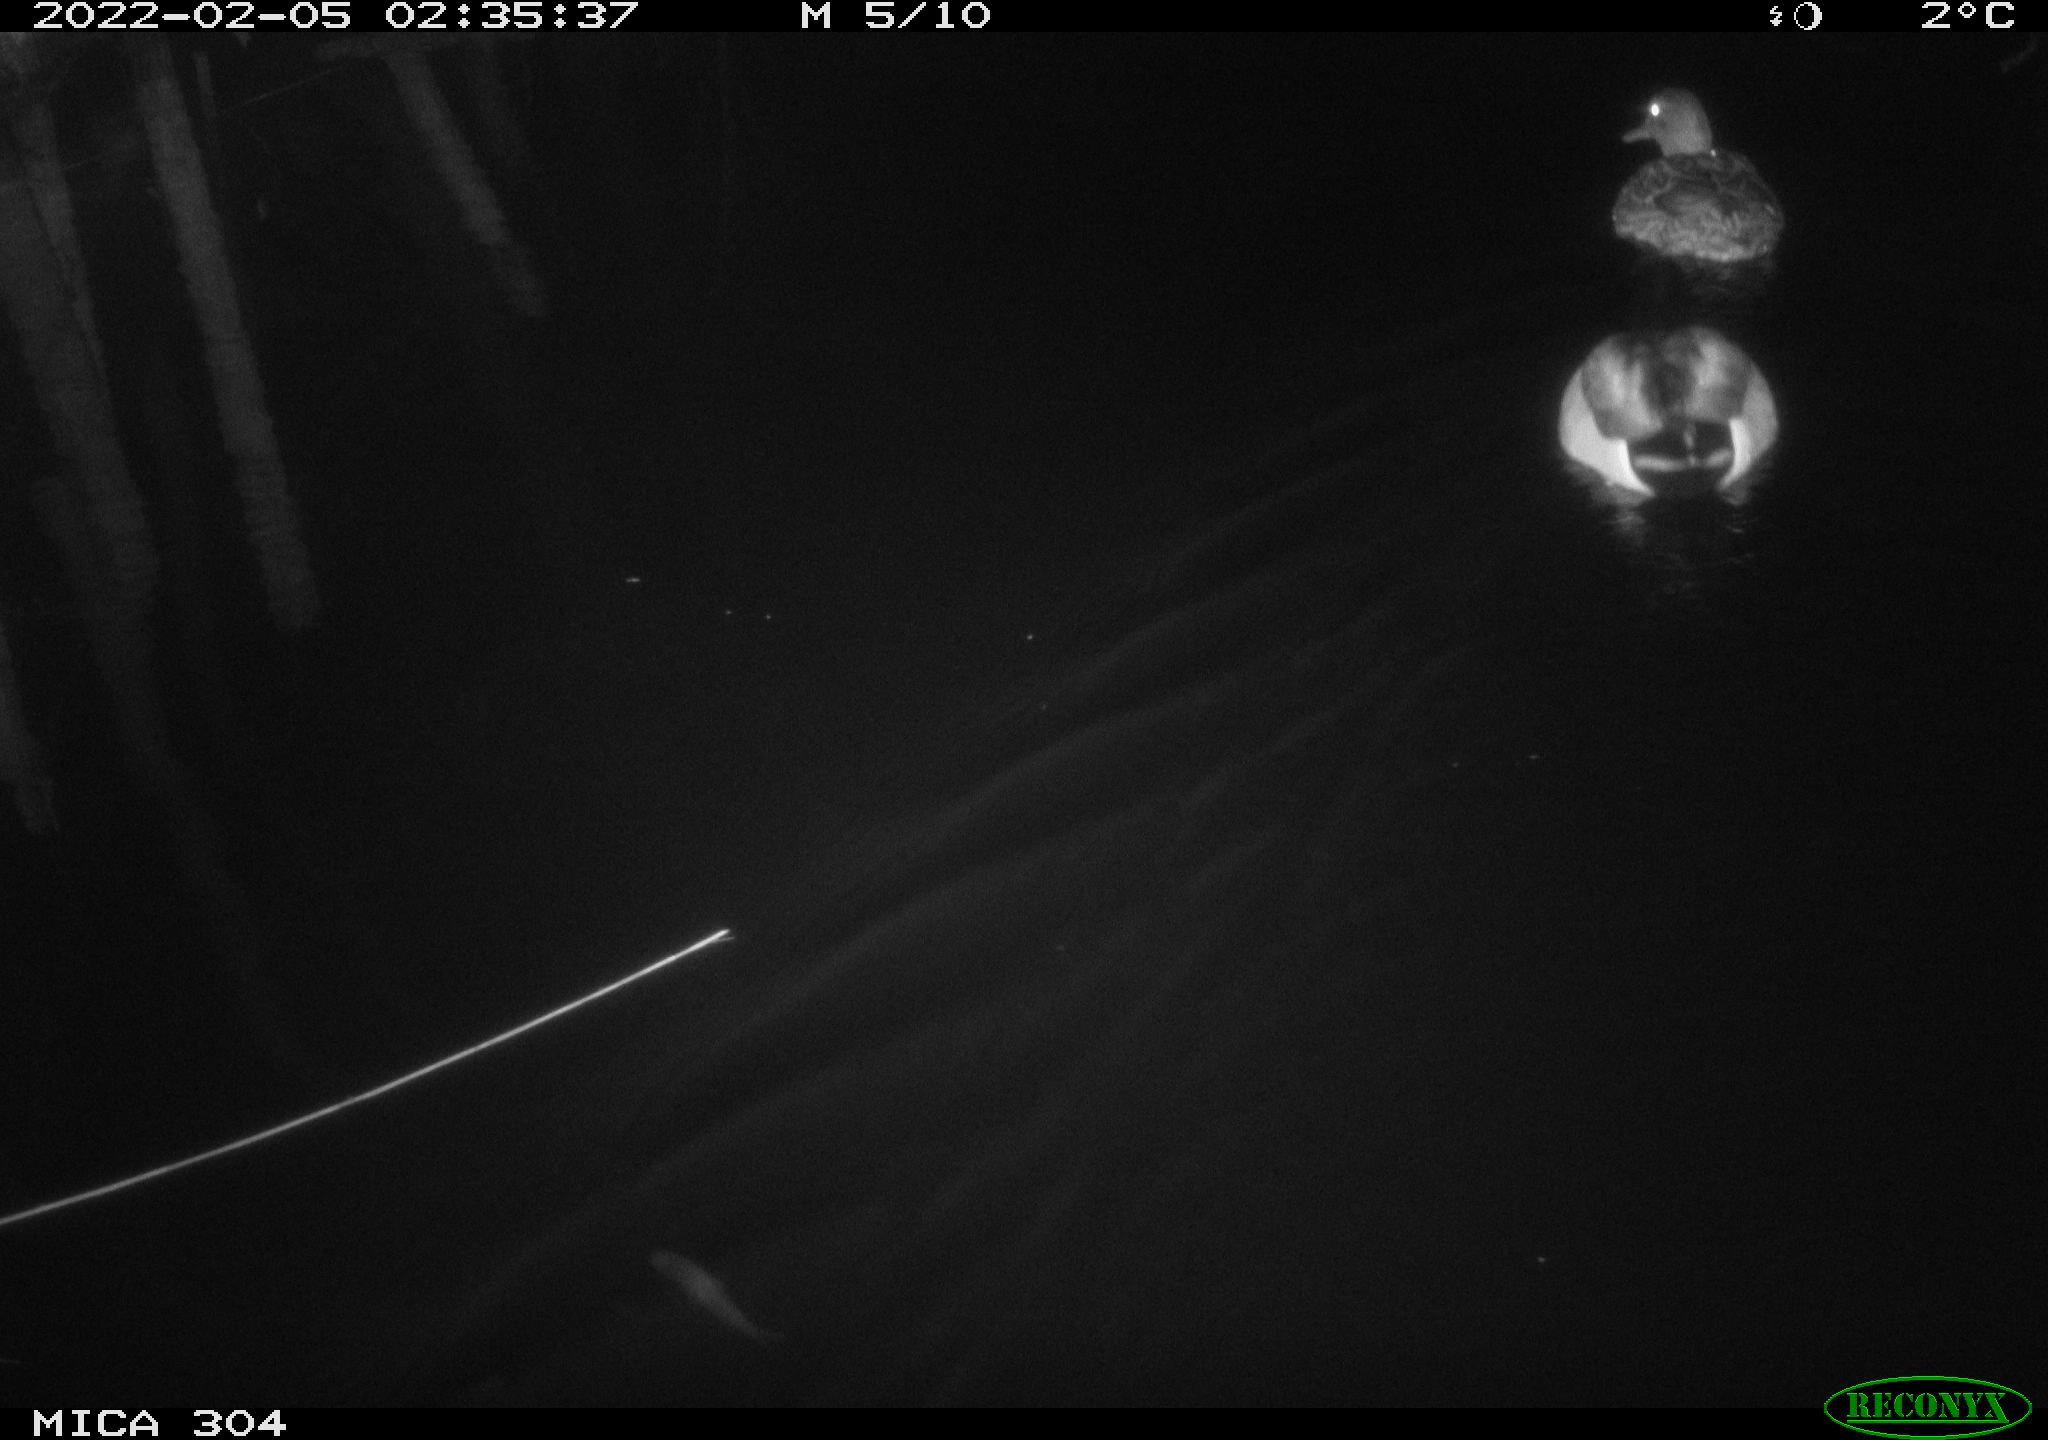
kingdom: Animalia
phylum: Chordata
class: Aves
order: Anseriformes
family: Anatidae
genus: Anas
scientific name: Anas platyrhynchos
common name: Mallard
